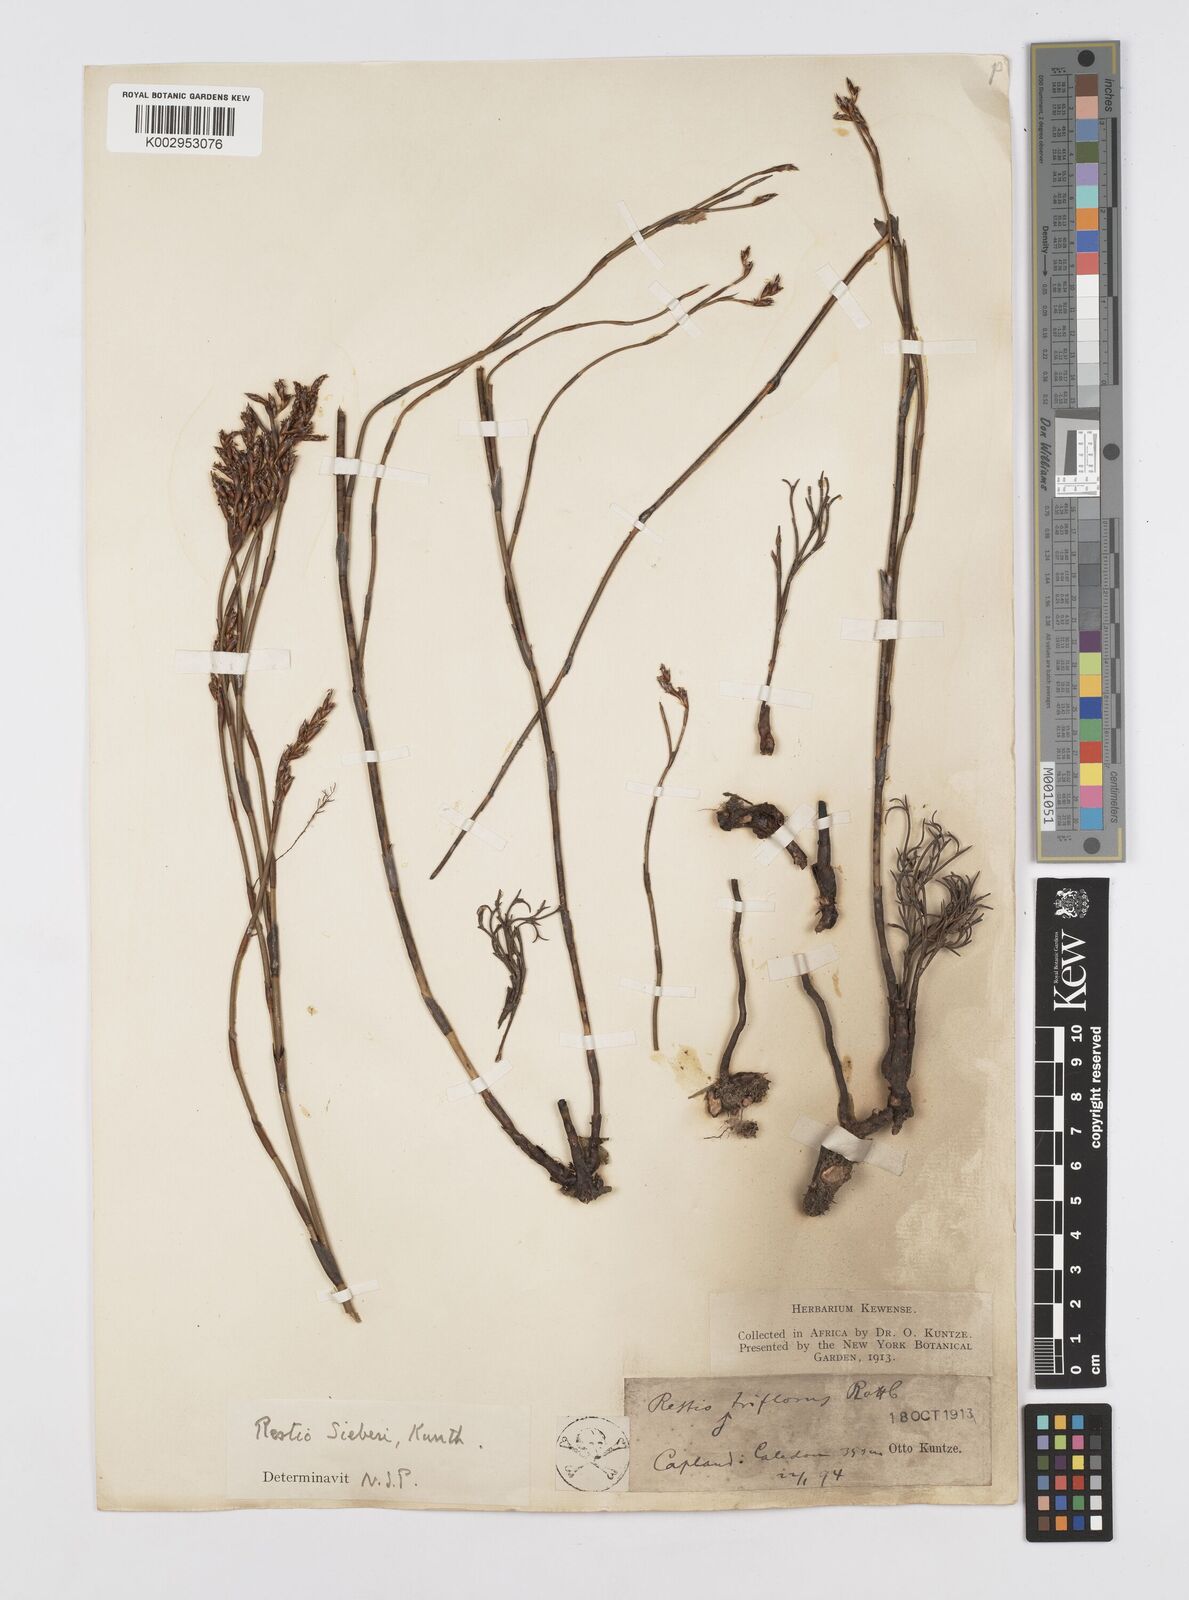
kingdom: Plantae
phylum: Tracheophyta
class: Liliopsida
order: Poales
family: Restionaceae
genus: Restio
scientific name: Restio sieberi
